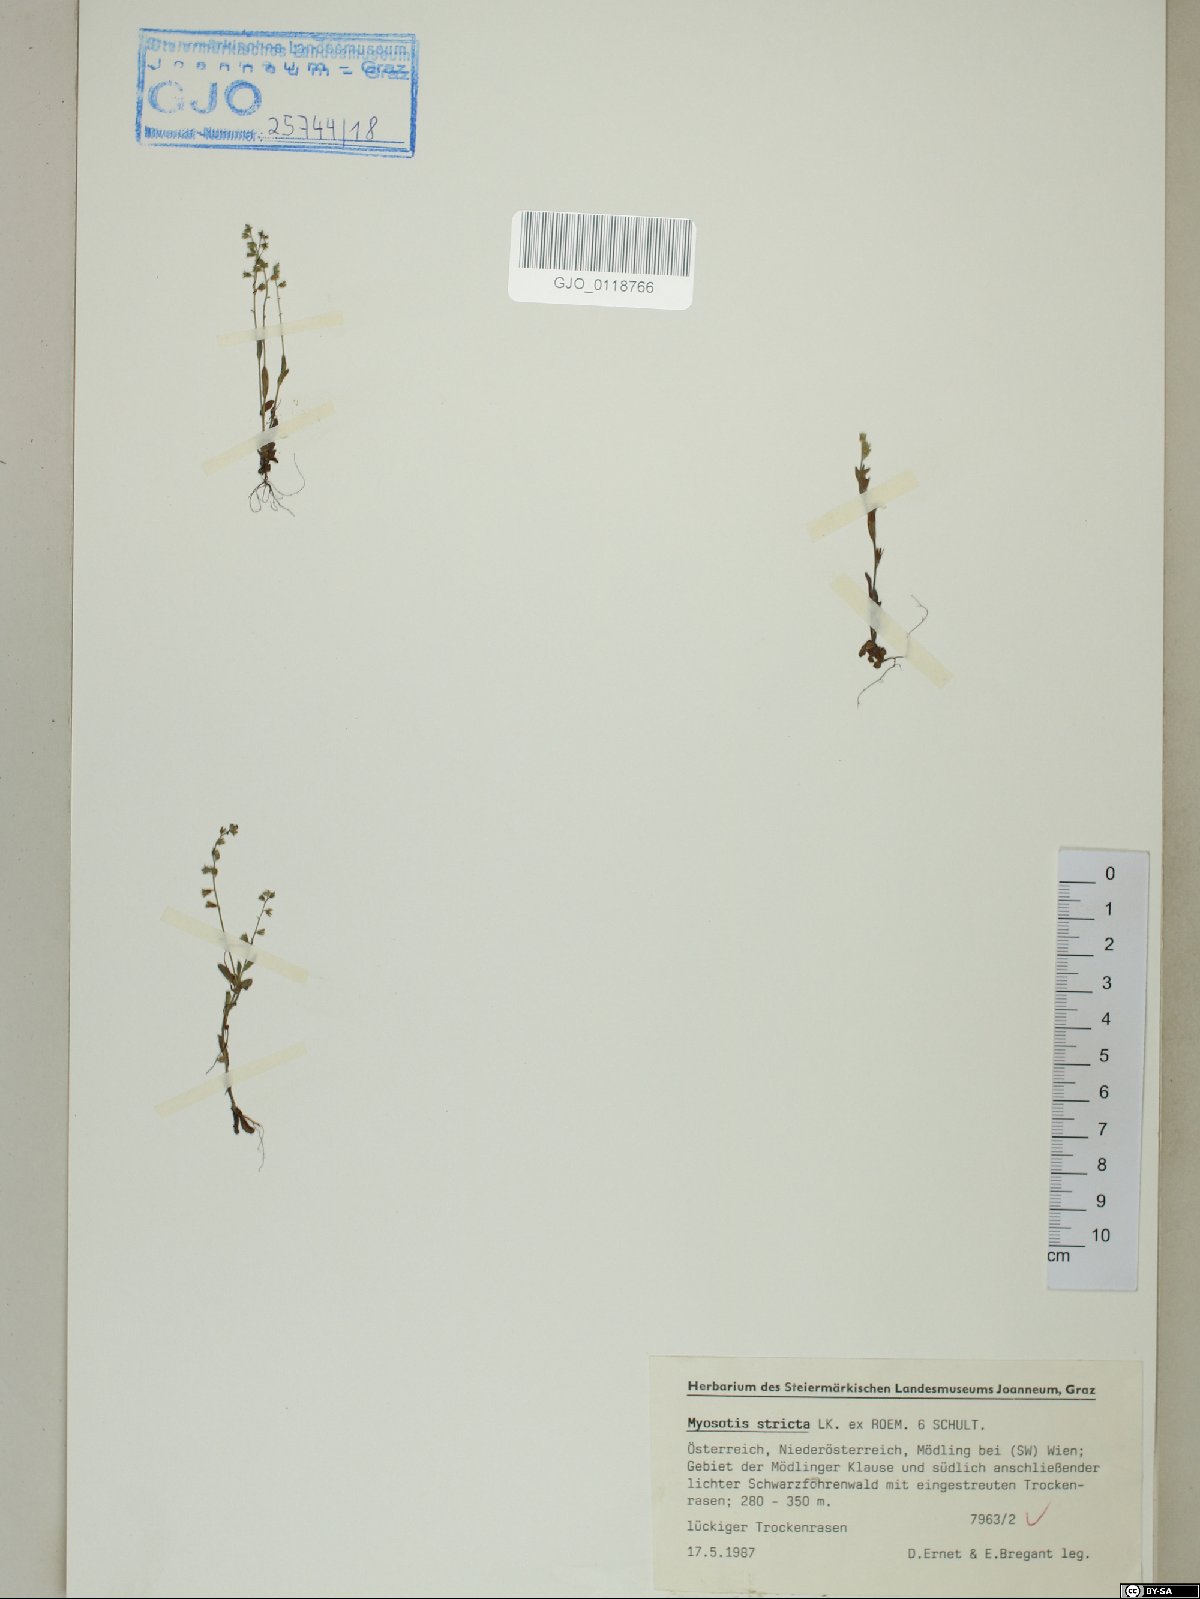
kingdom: Plantae
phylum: Tracheophyta
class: Magnoliopsida
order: Boraginales
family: Boraginaceae
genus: Myosotis
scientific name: Myosotis stricta
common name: Strict forget-me-not
